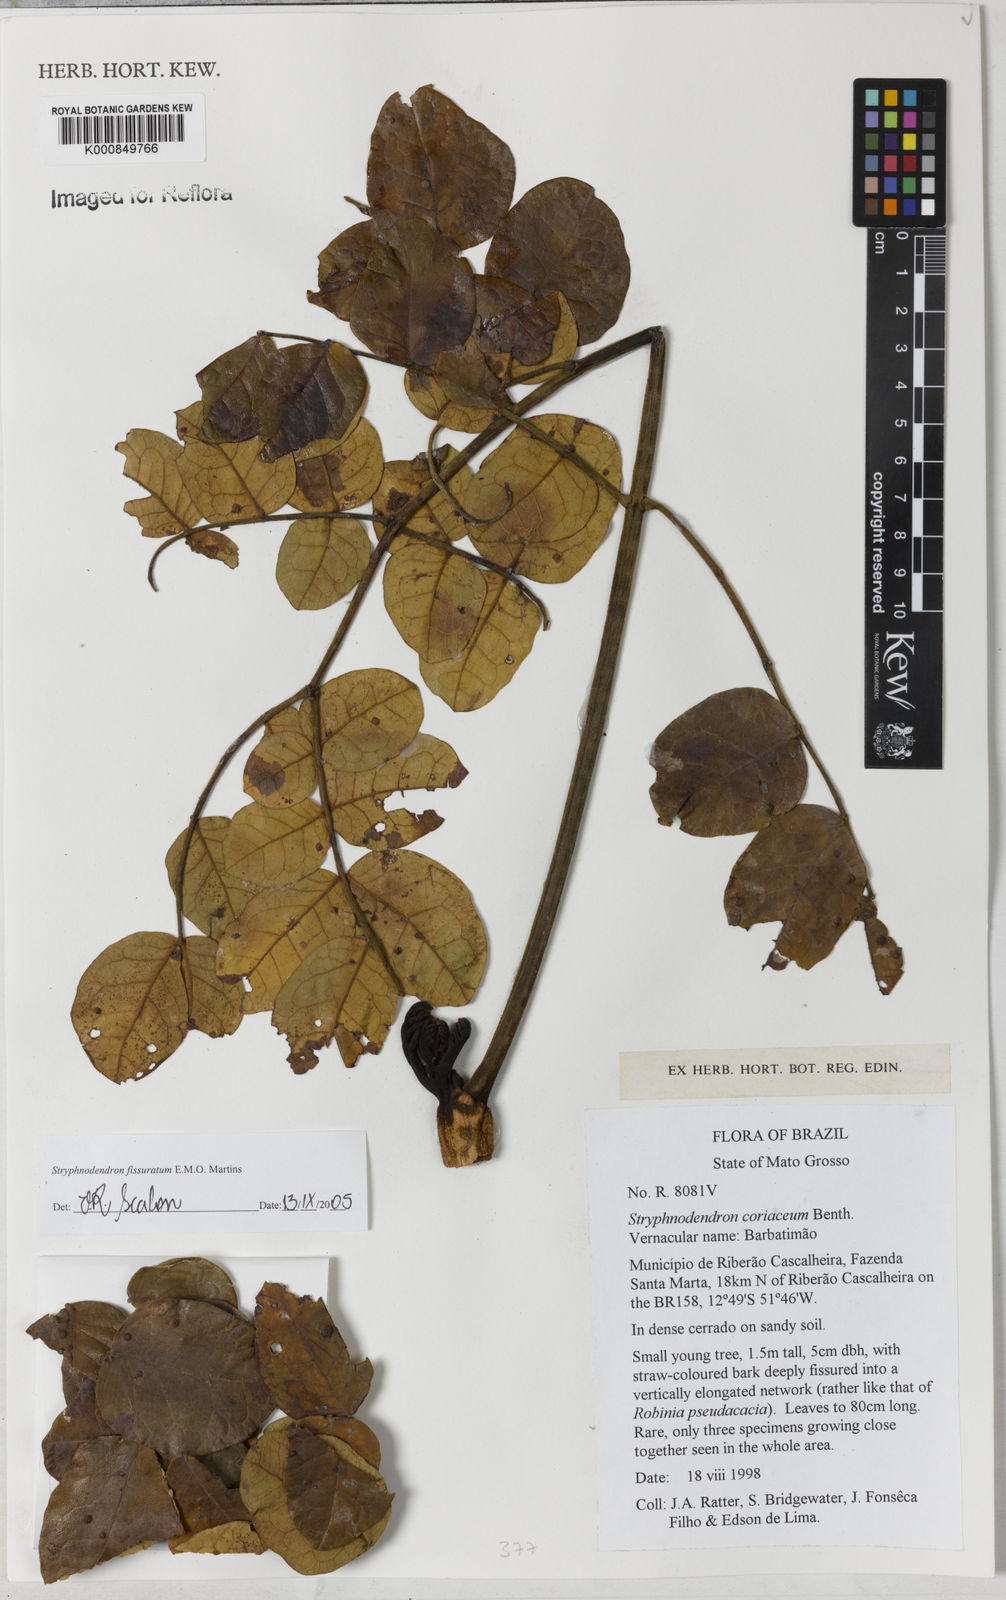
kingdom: Plantae
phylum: Tracheophyta
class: Magnoliopsida
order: Fabales
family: Fabaceae
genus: Stryphnodendron
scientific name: Stryphnodendron fissuratum
